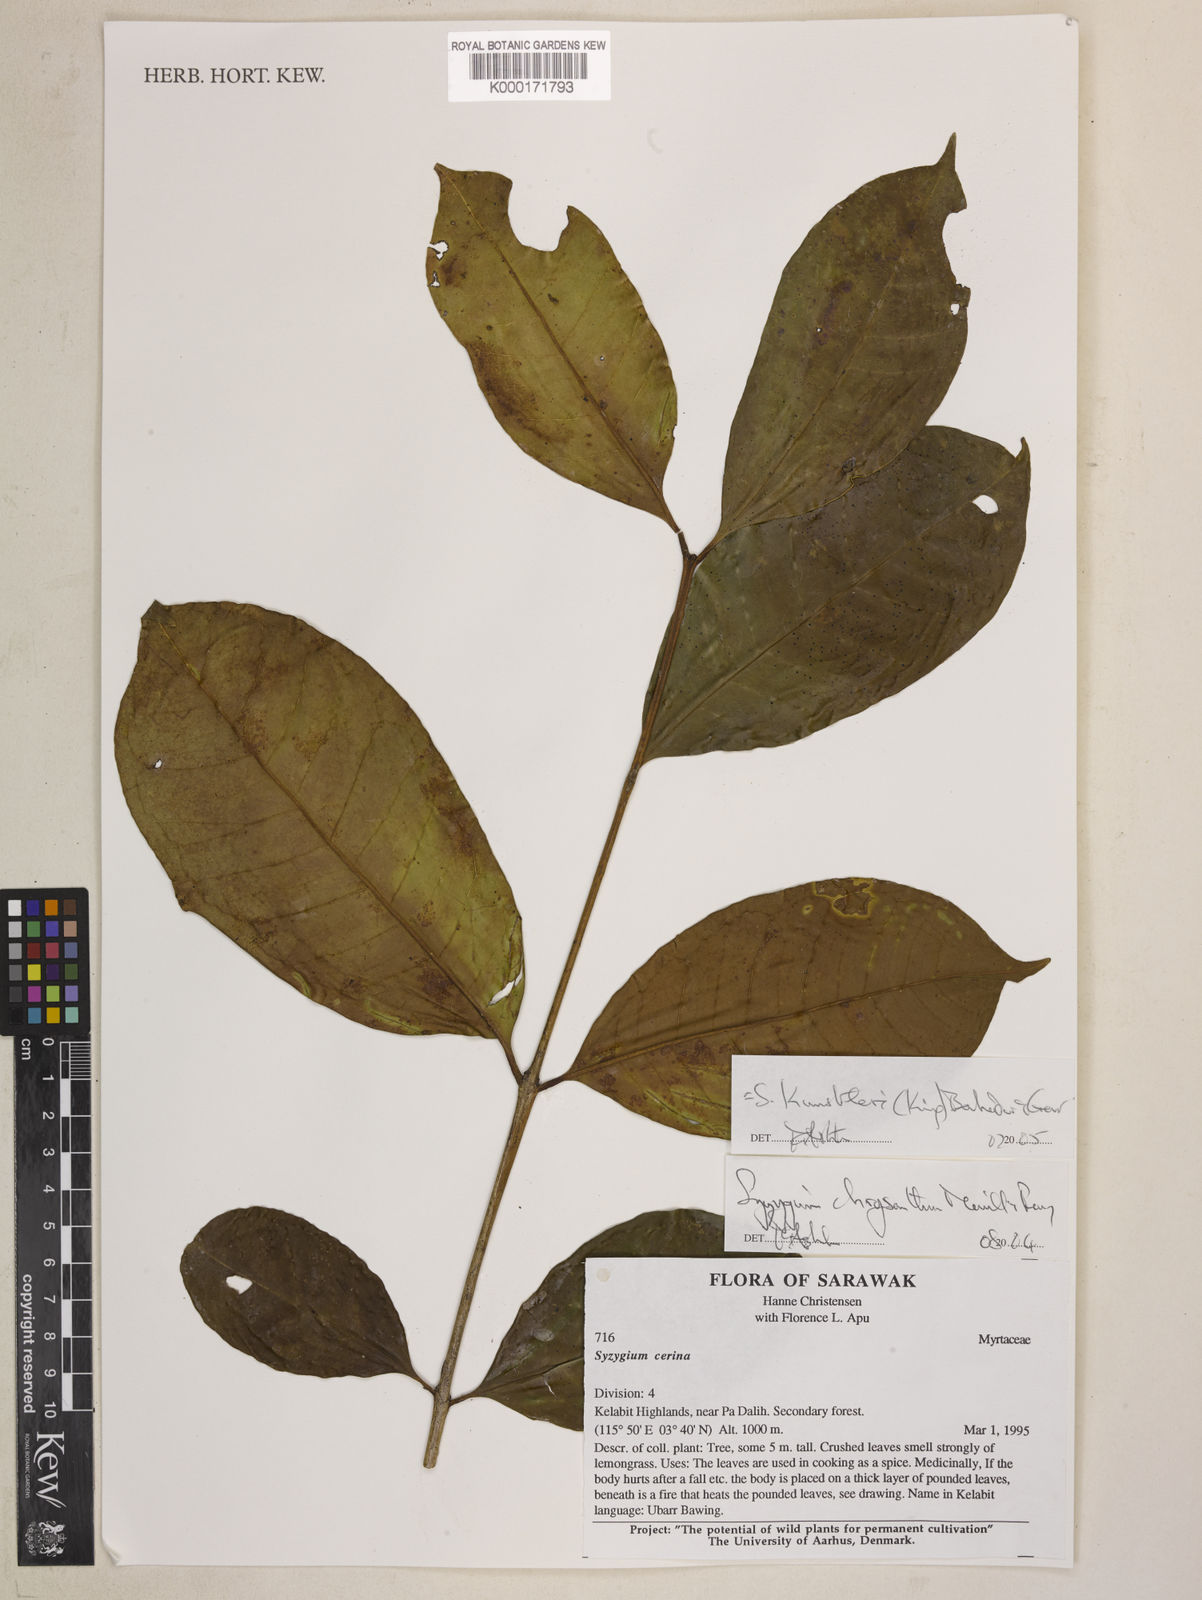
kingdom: Plantae
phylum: Tracheophyta
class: Magnoliopsida
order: Myrtales
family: Myrtaceae
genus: Syzygium
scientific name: Syzygium kunstleri
